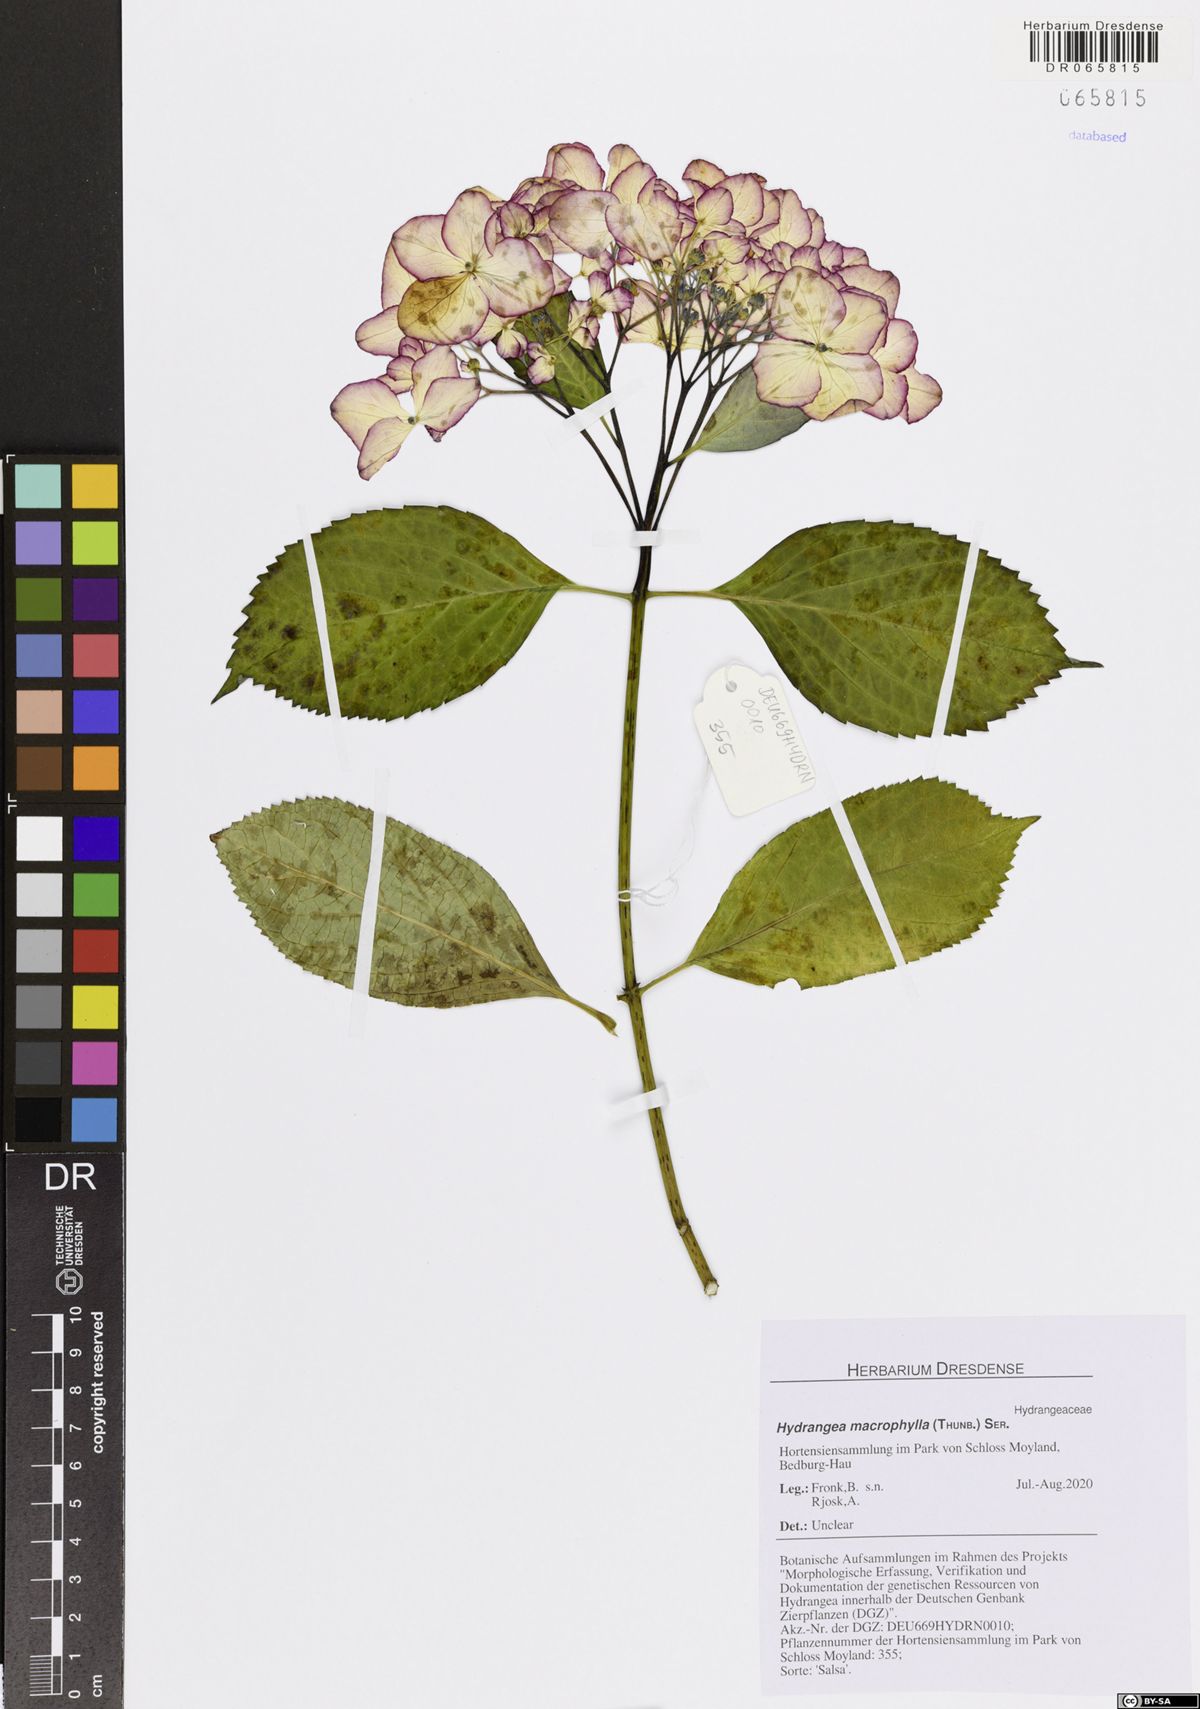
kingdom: Plantae
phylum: Tracheophyta
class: Magnoliopsida
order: Cornales
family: Hydrangeaceae
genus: Hydrangea
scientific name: Hydrangea macrophylla
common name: Hydrangea
